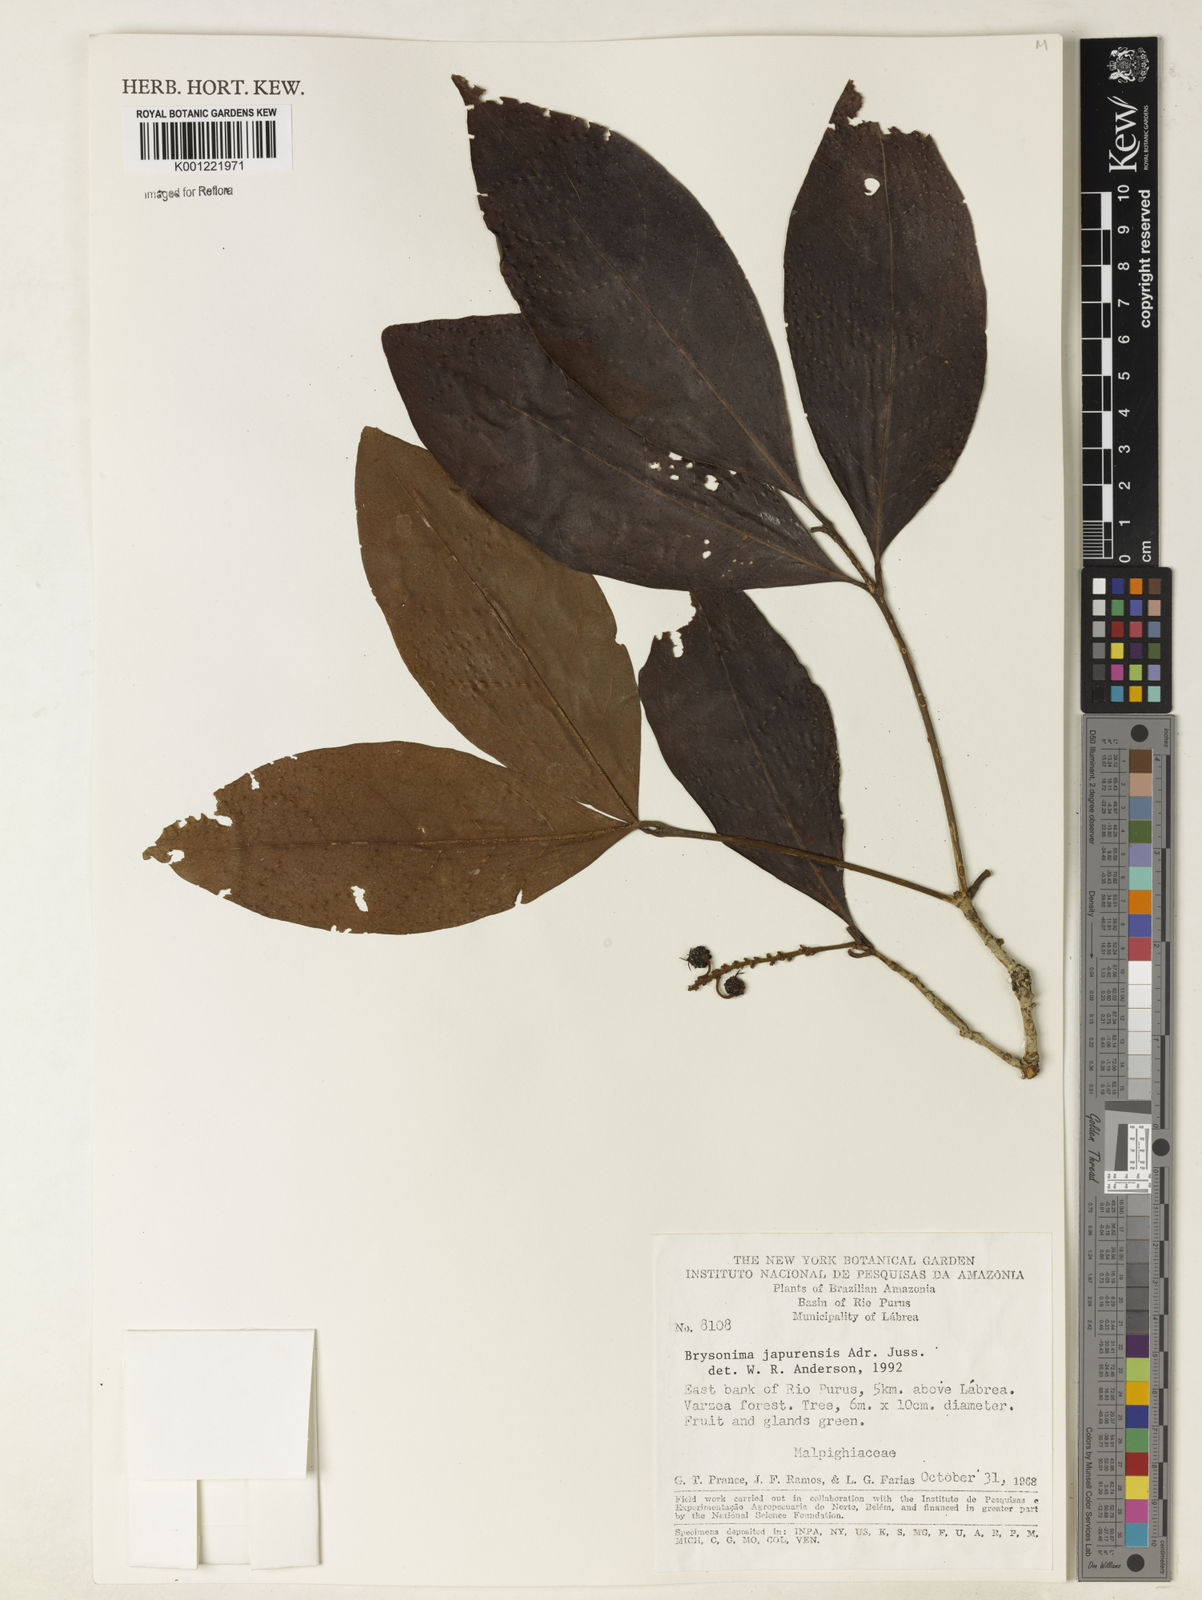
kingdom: Plantae
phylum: Tracheophyta
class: Magnoliopsida
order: Malpighiales
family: Malpighiaceae
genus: Byrsonima
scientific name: Byrsonima japurensis
